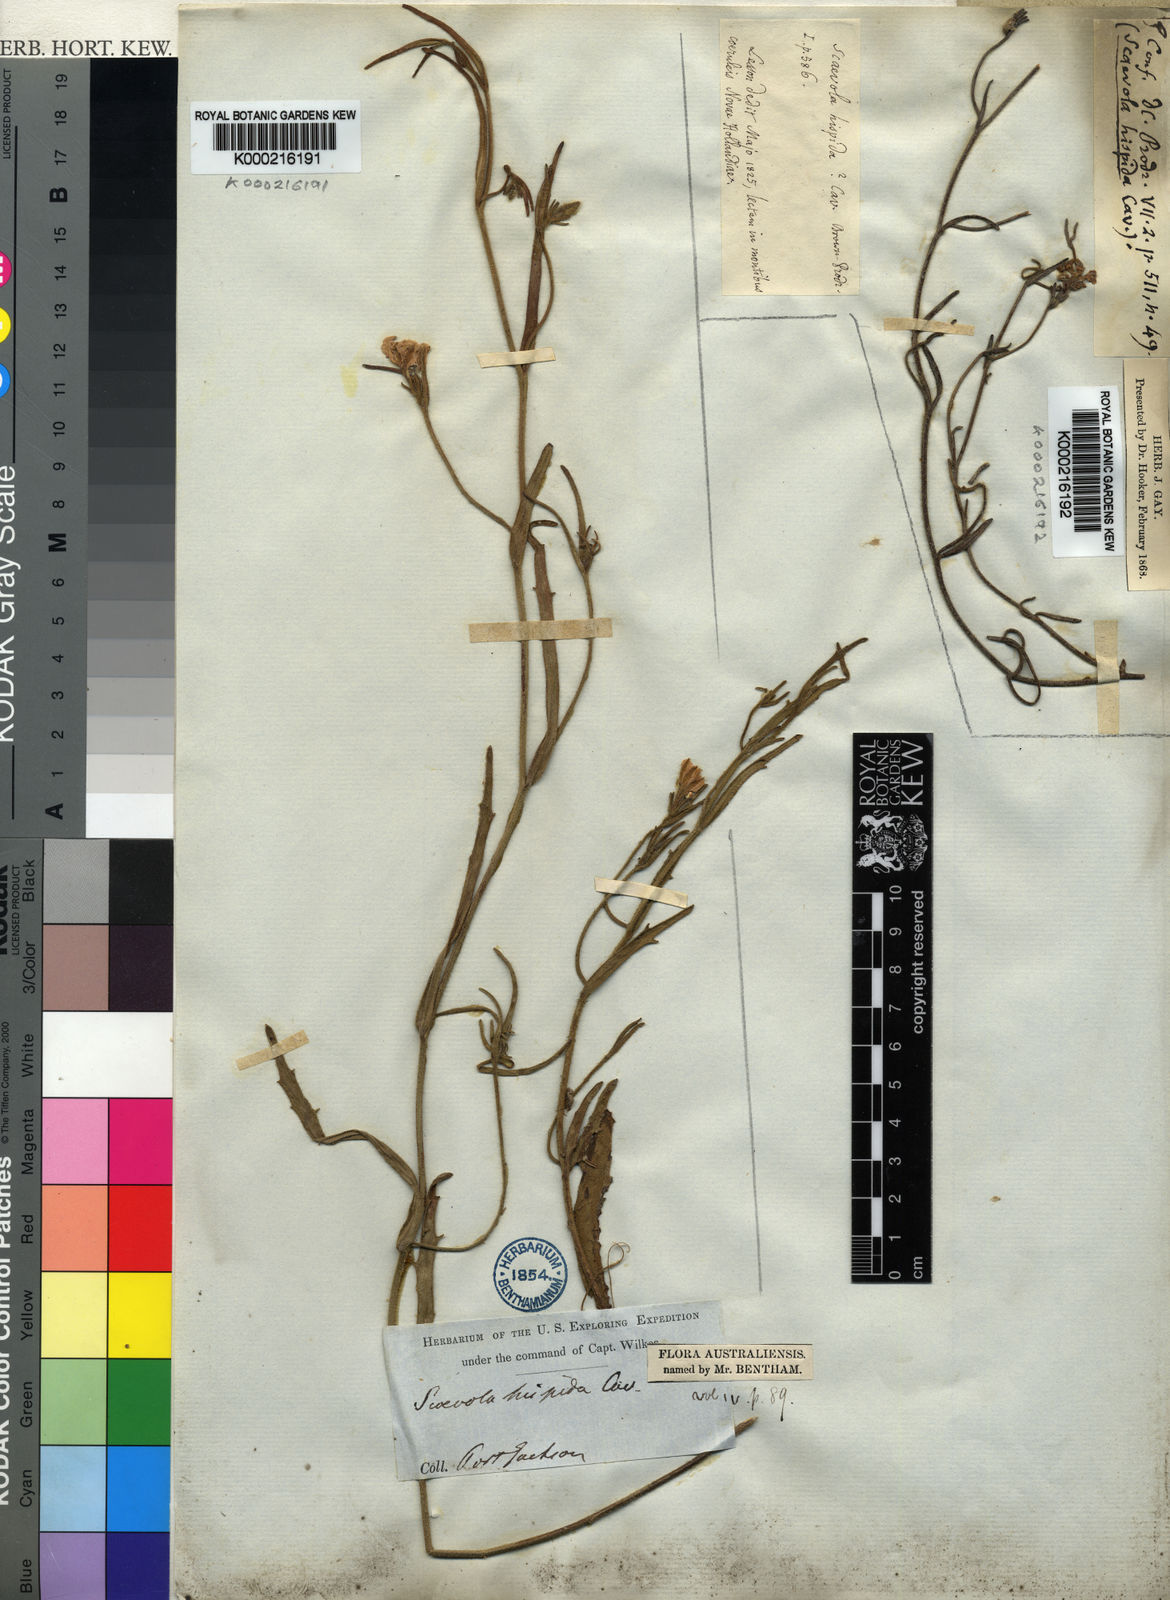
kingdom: Plantae
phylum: Tracheophyta
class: Magnoliopsida
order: Asterales
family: Goodeniaceae
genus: Scaevola
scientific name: Scaevola
